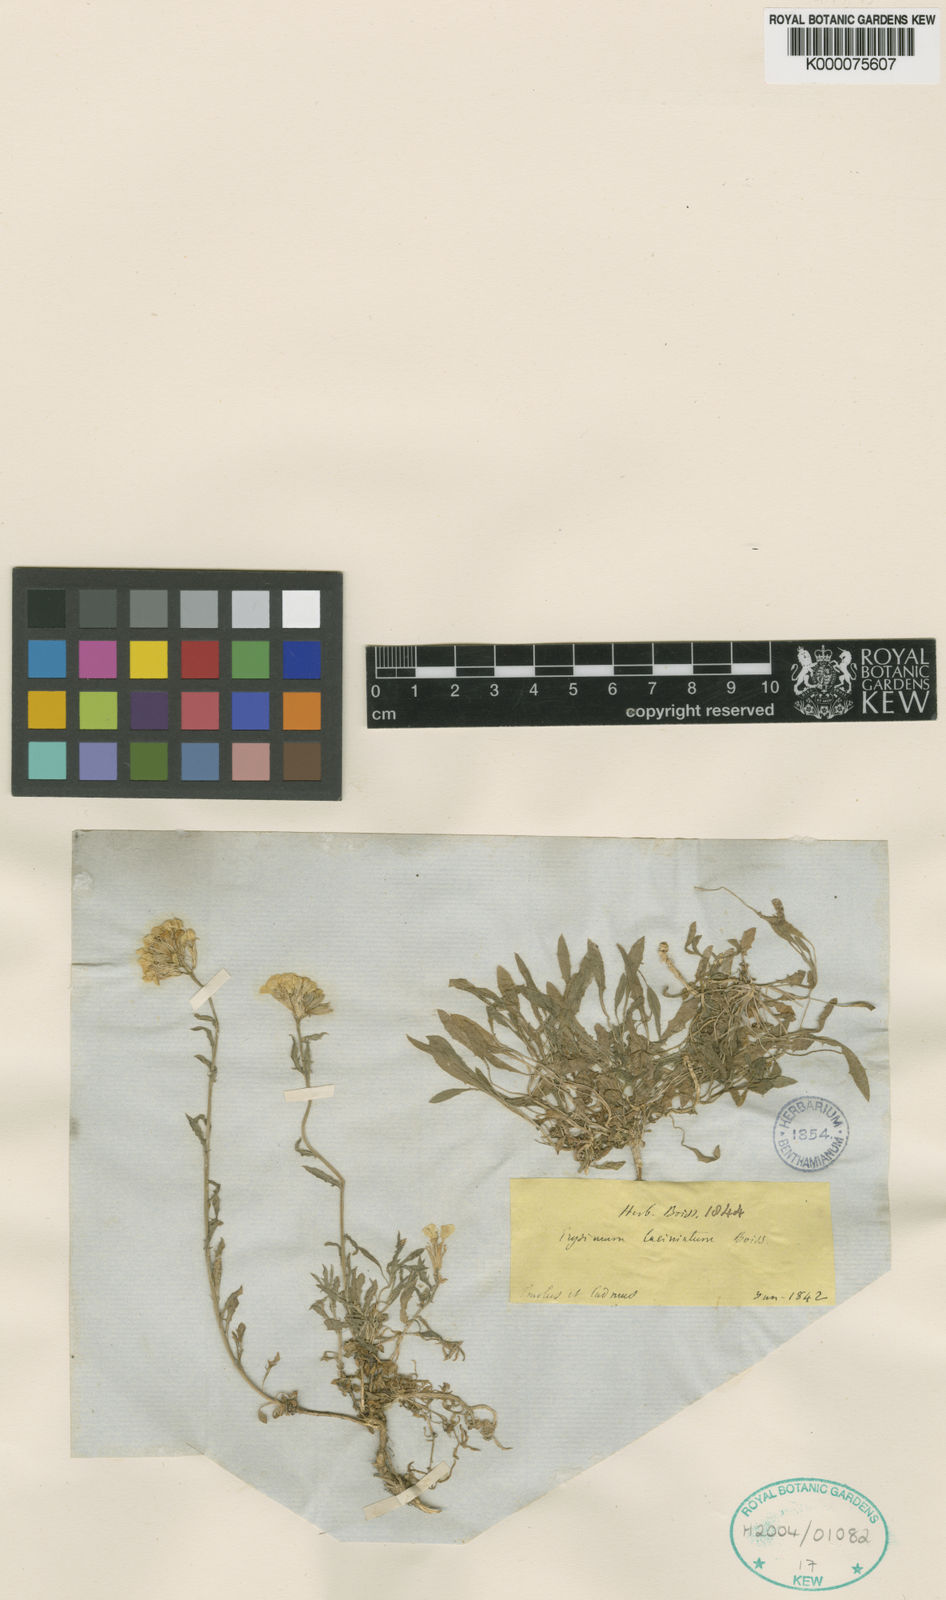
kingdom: Plantae
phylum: Tracheophyta
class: Magnoliopsida
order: Brassicales
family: Brassicaceae
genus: Erysimum
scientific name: Erysimum pulchellum
